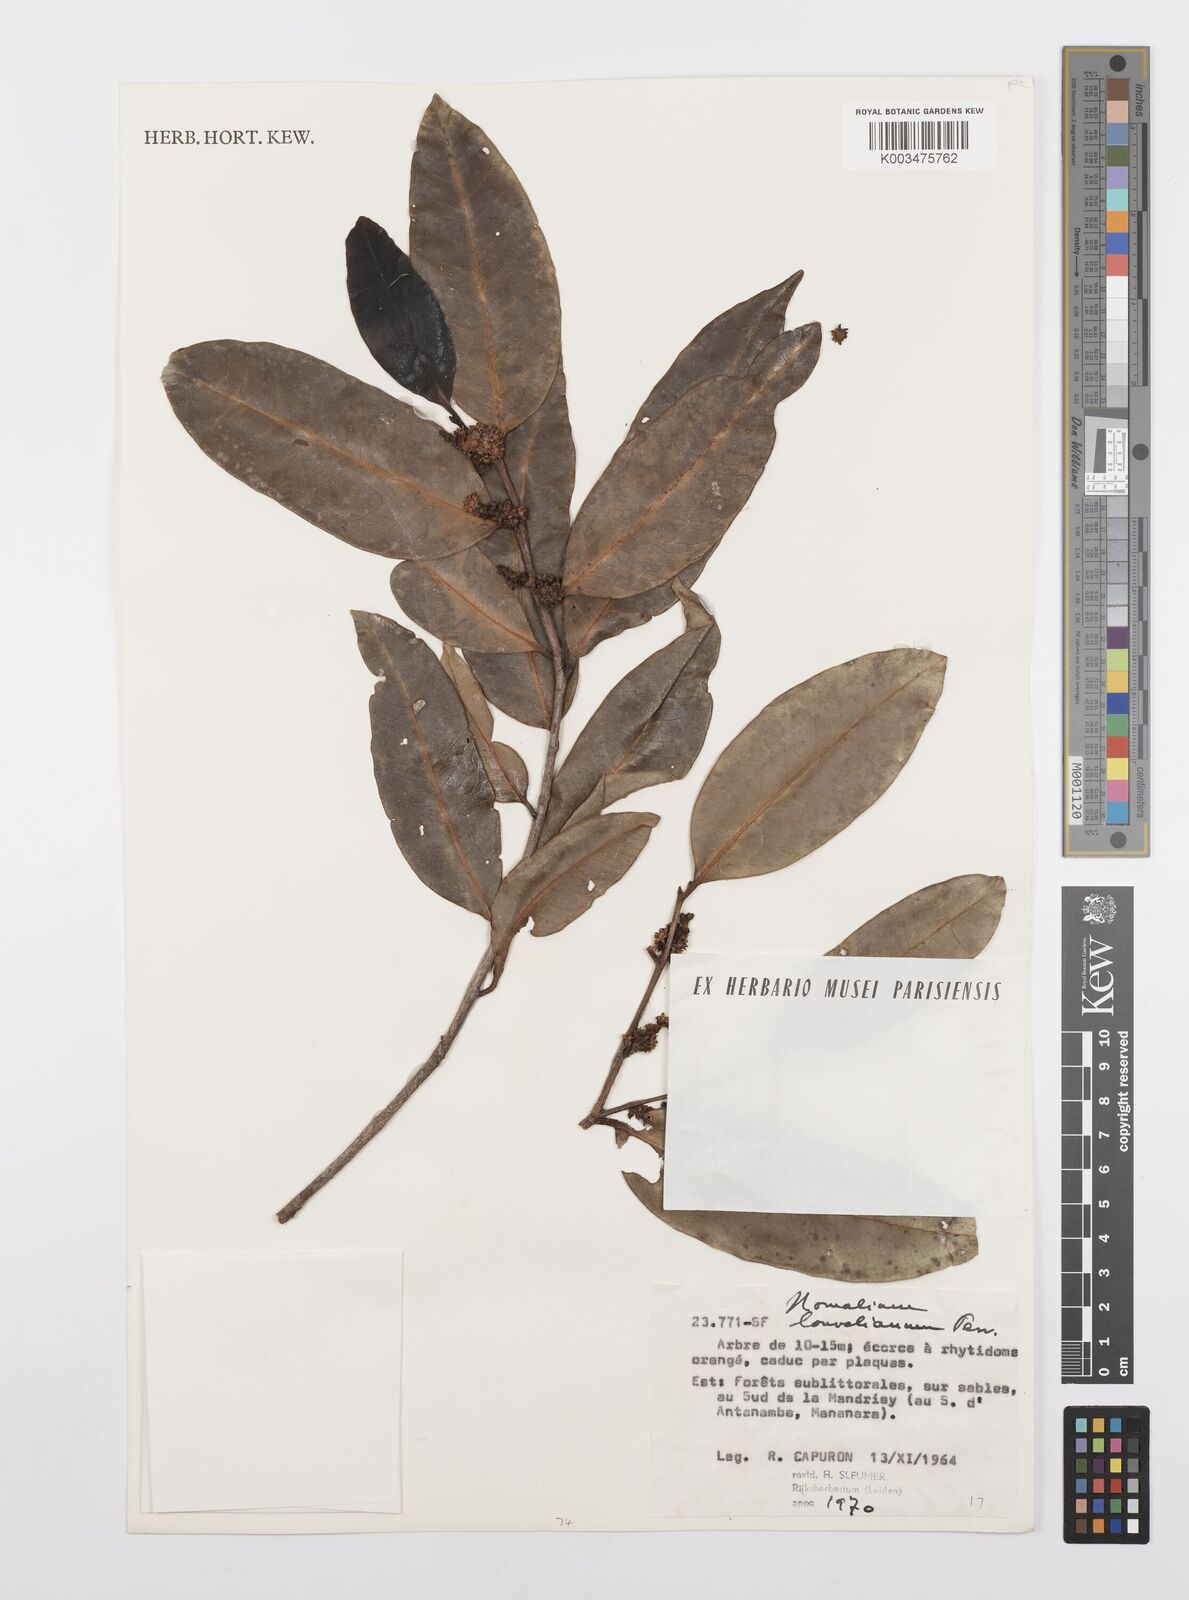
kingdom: Plantae
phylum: Tracheophyta
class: Magnoliopsida
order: Malpighiales
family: Salicaceae
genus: Homalium
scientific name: Homalium louvelianum
